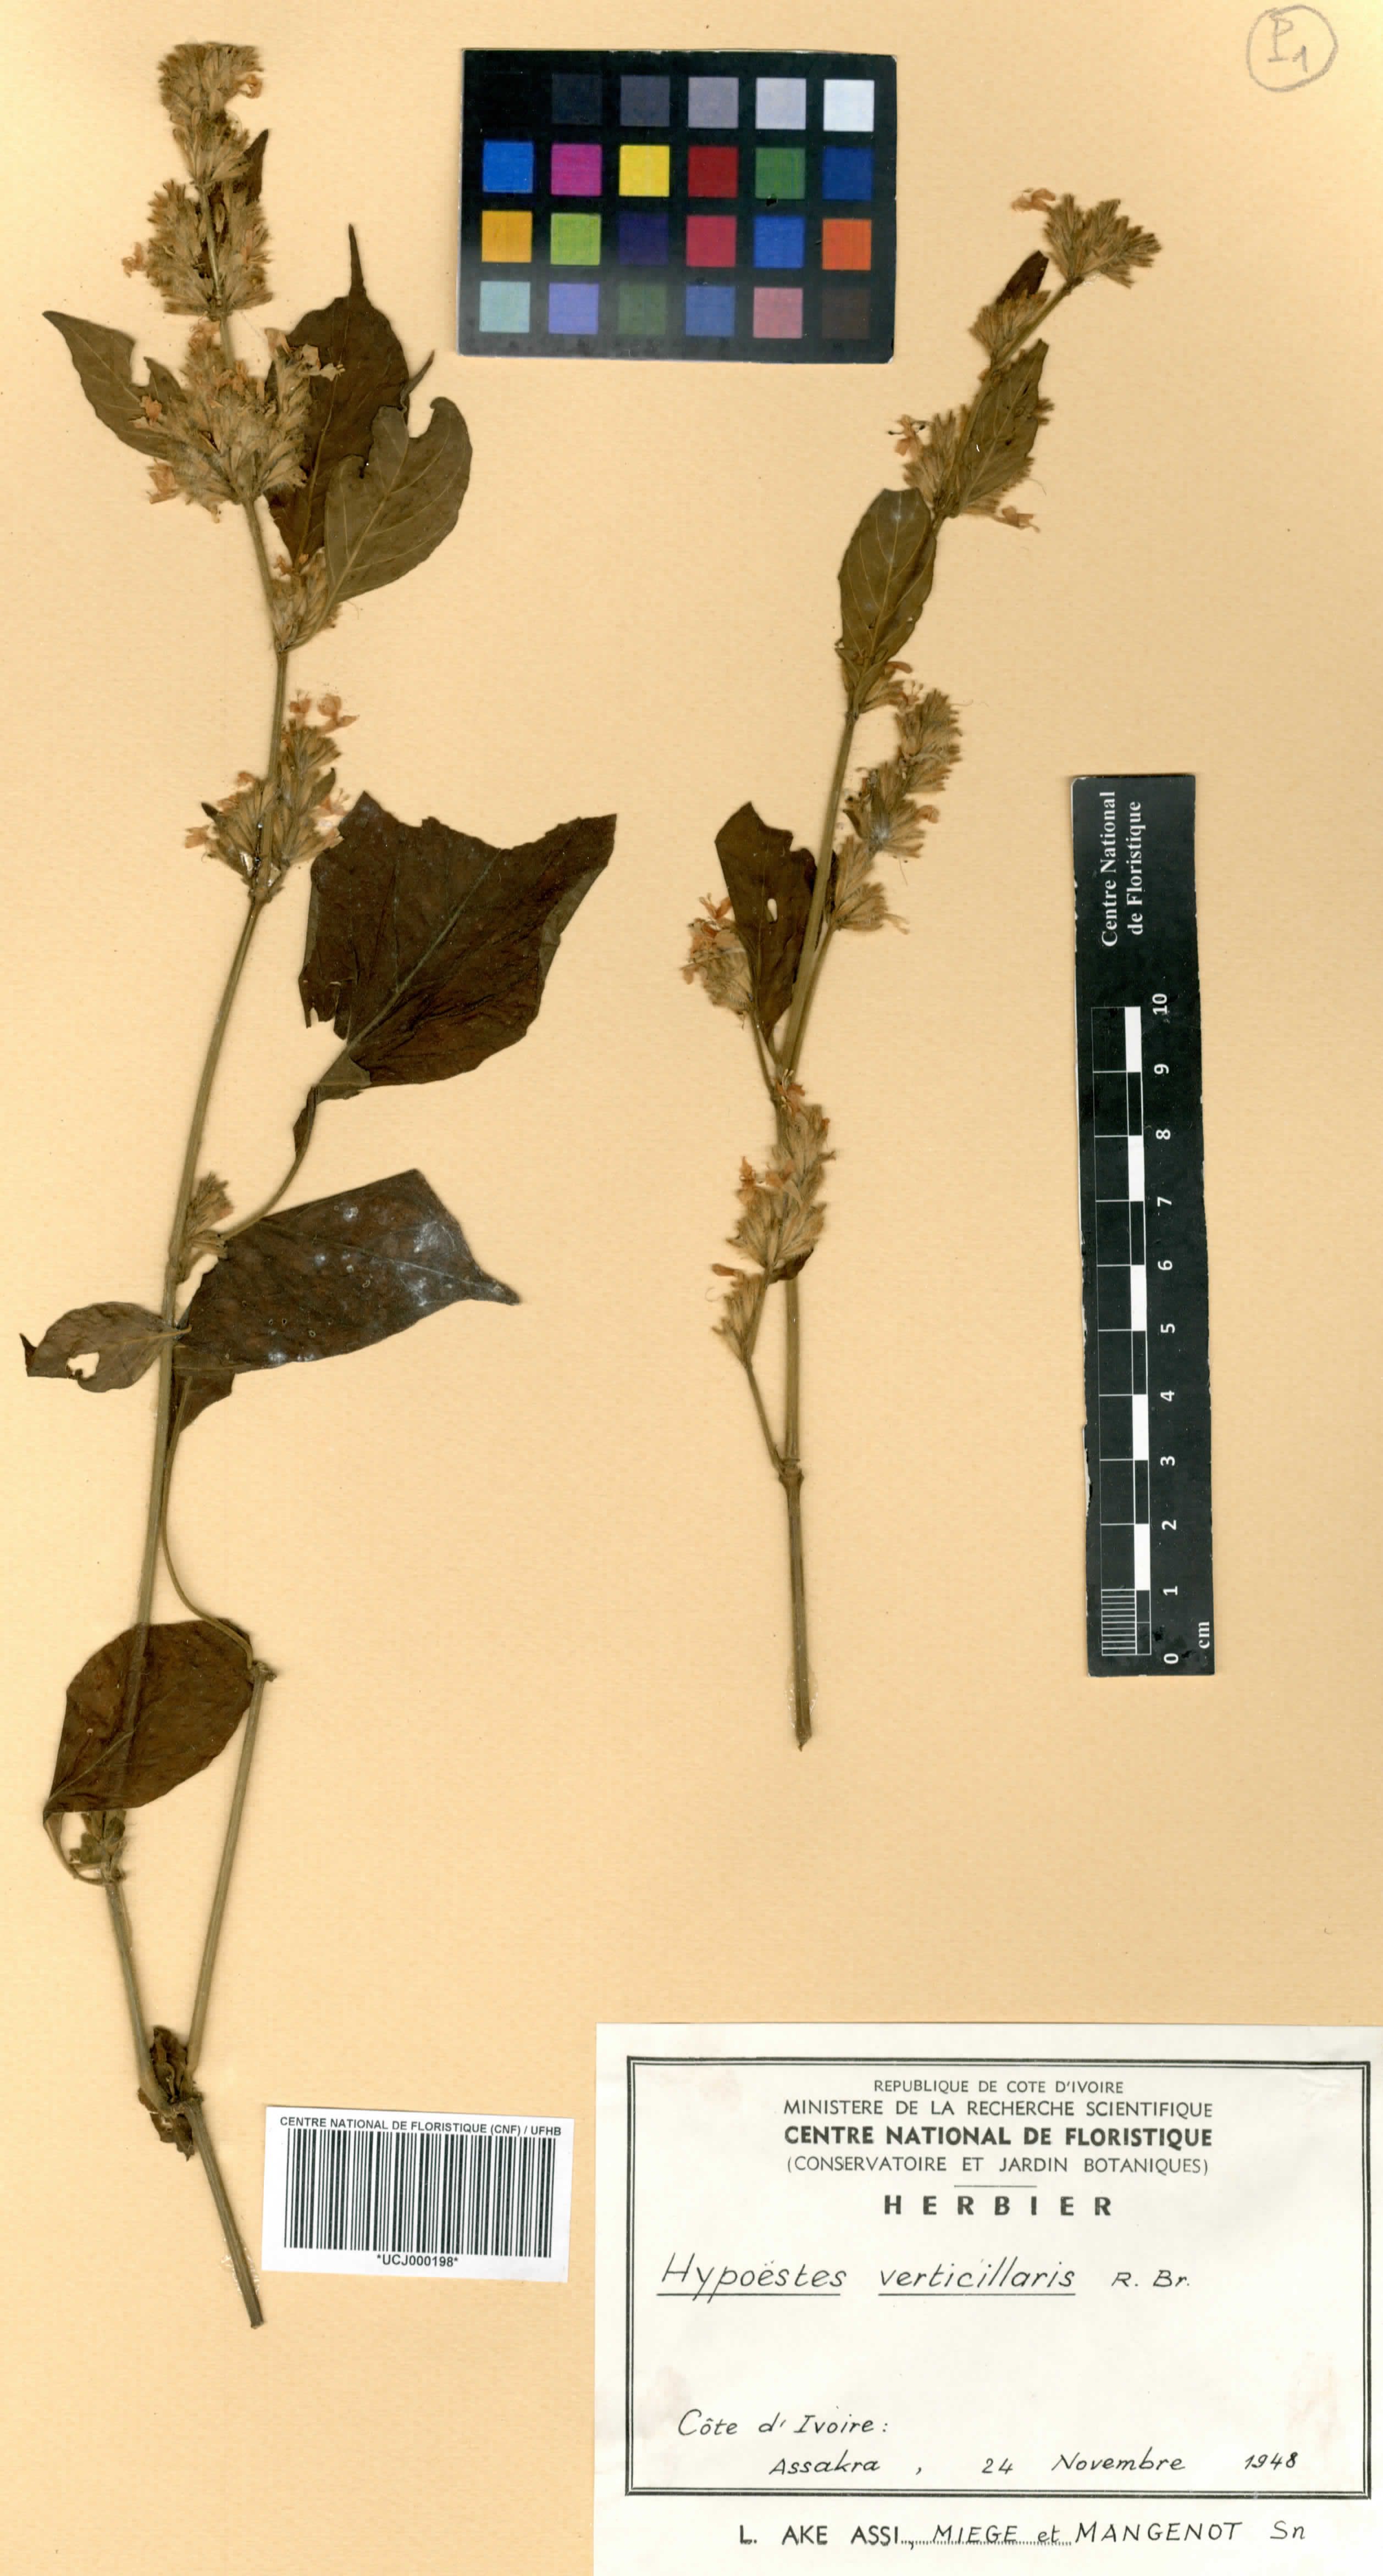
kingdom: Plantae
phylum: Tracheophyta
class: Magnoliopsida
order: Lamiales
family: Acanthaceae
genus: Hypoestes
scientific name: Hypoestes aristata
